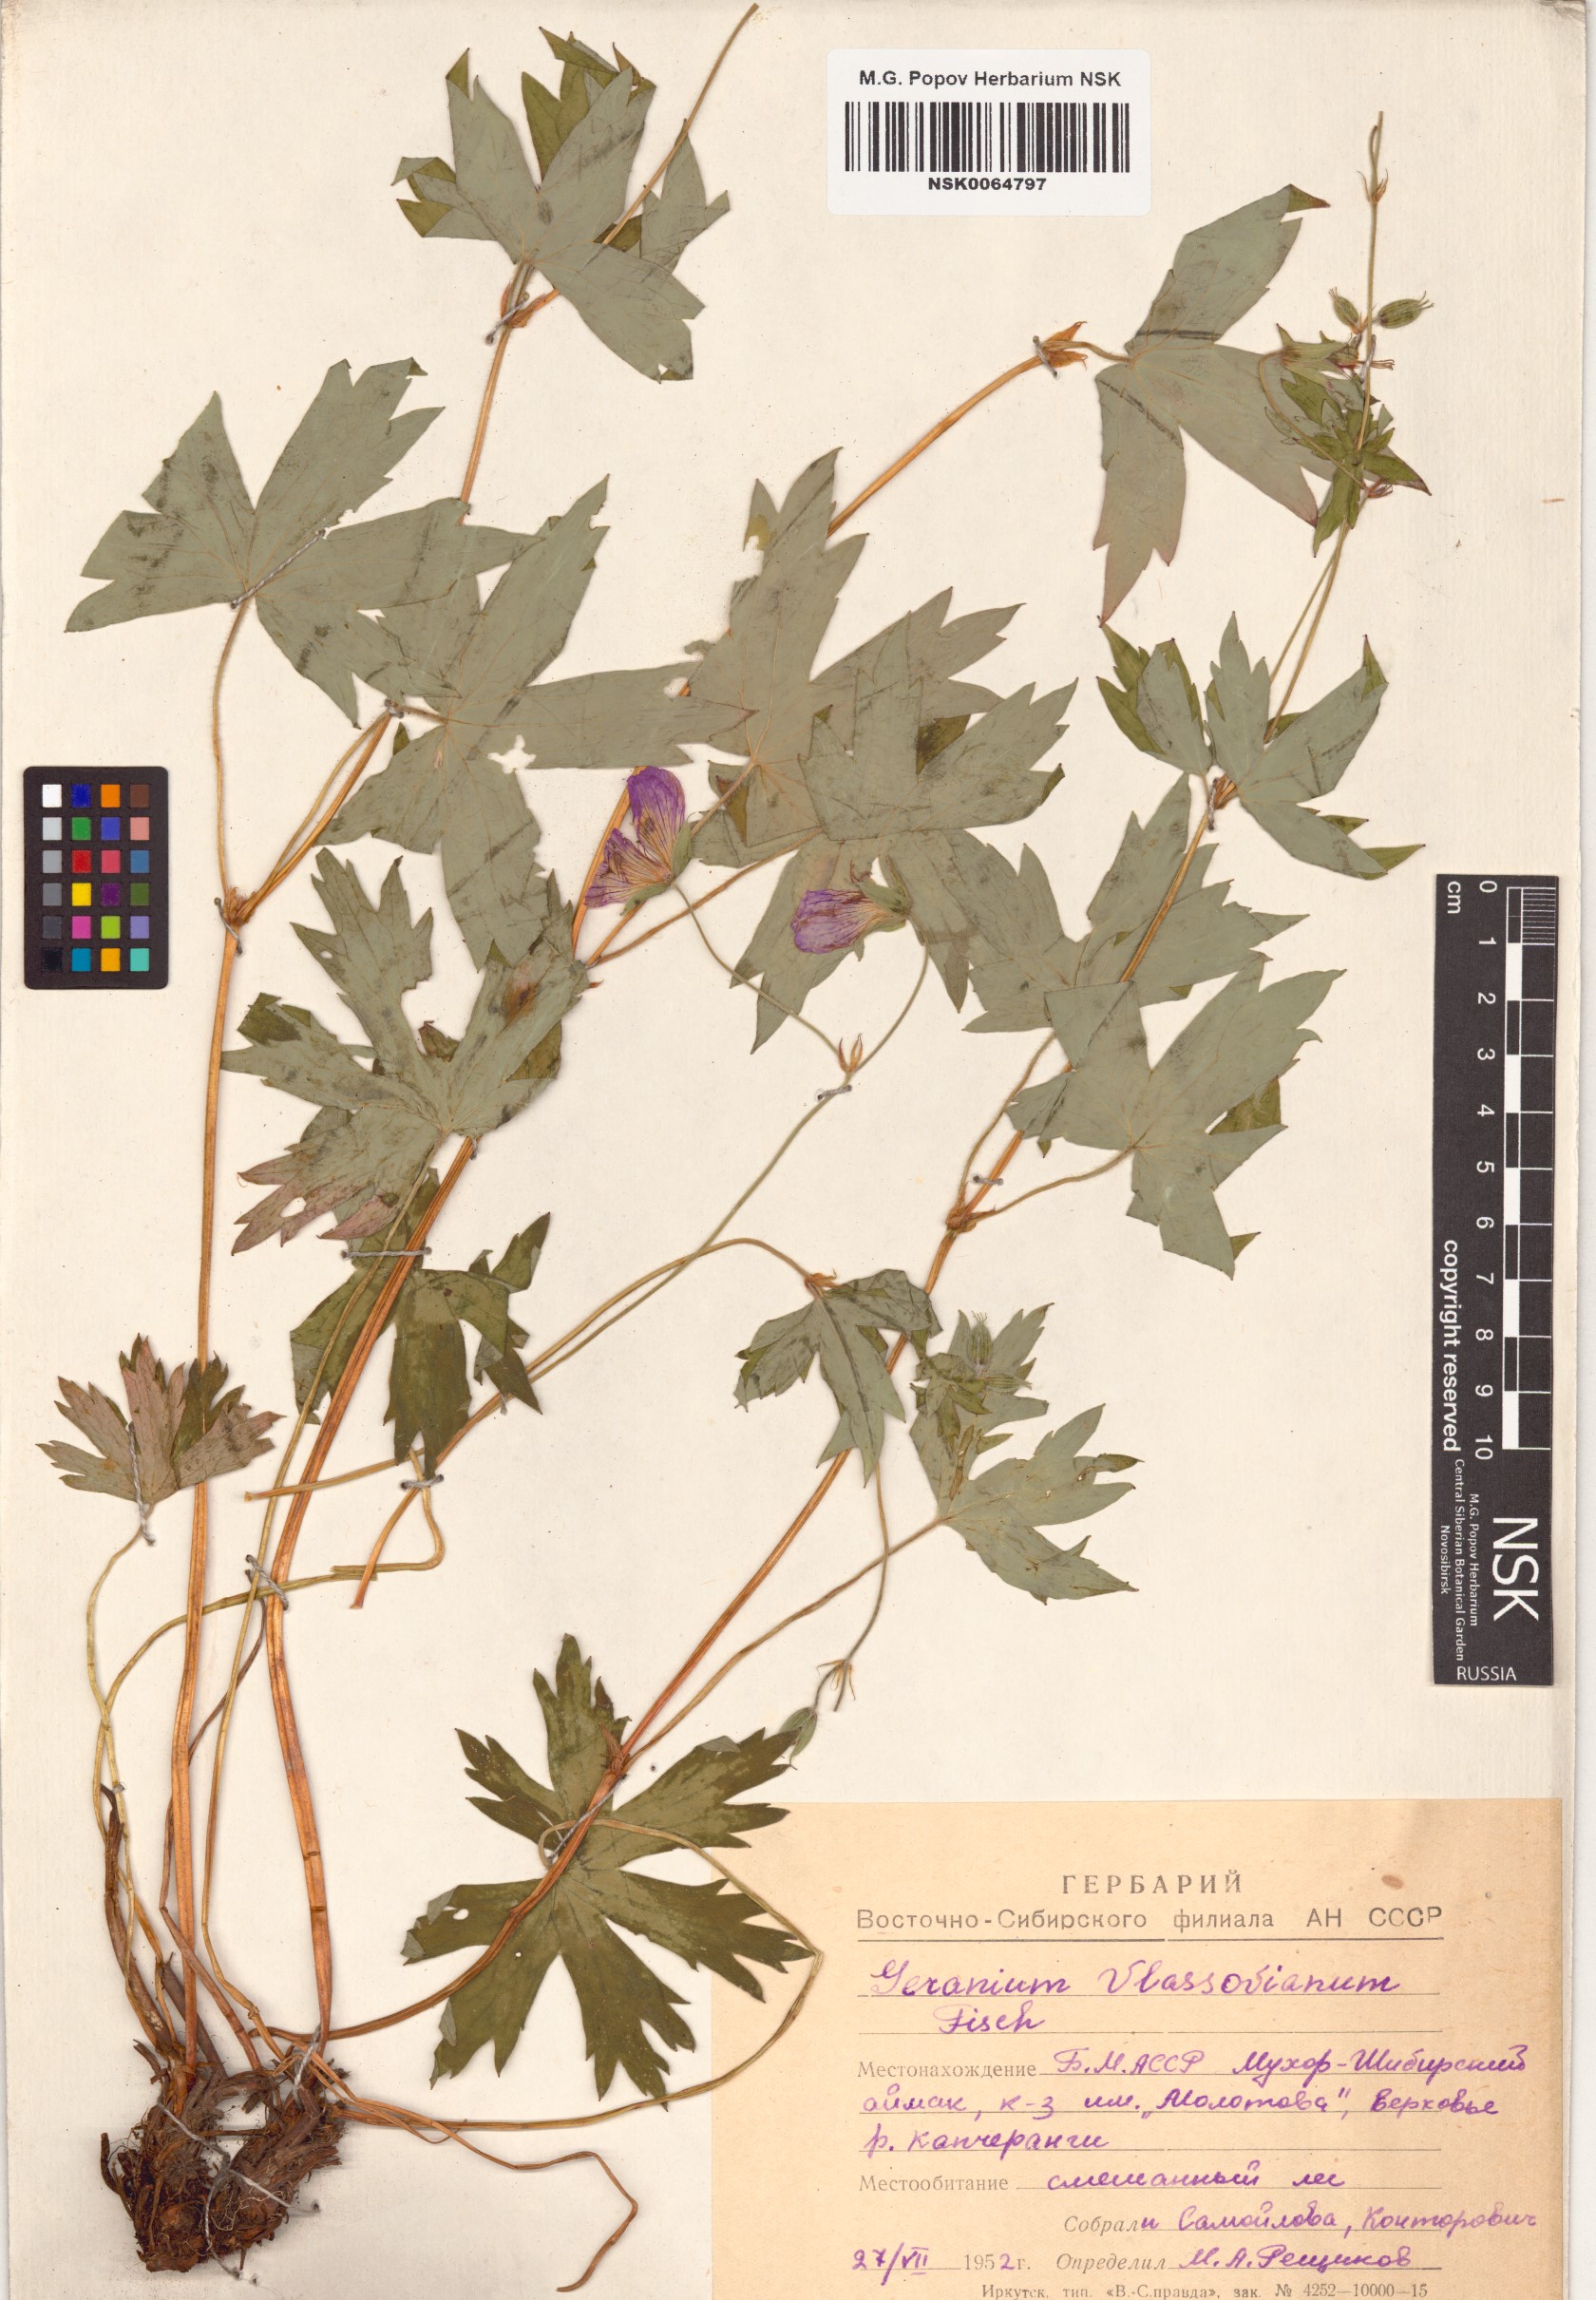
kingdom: Plantae
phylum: Tracheophyta
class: Magnoliopsida
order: Geraniales
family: Geraniaceae
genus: Geranium
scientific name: Geranium wlassovianum
